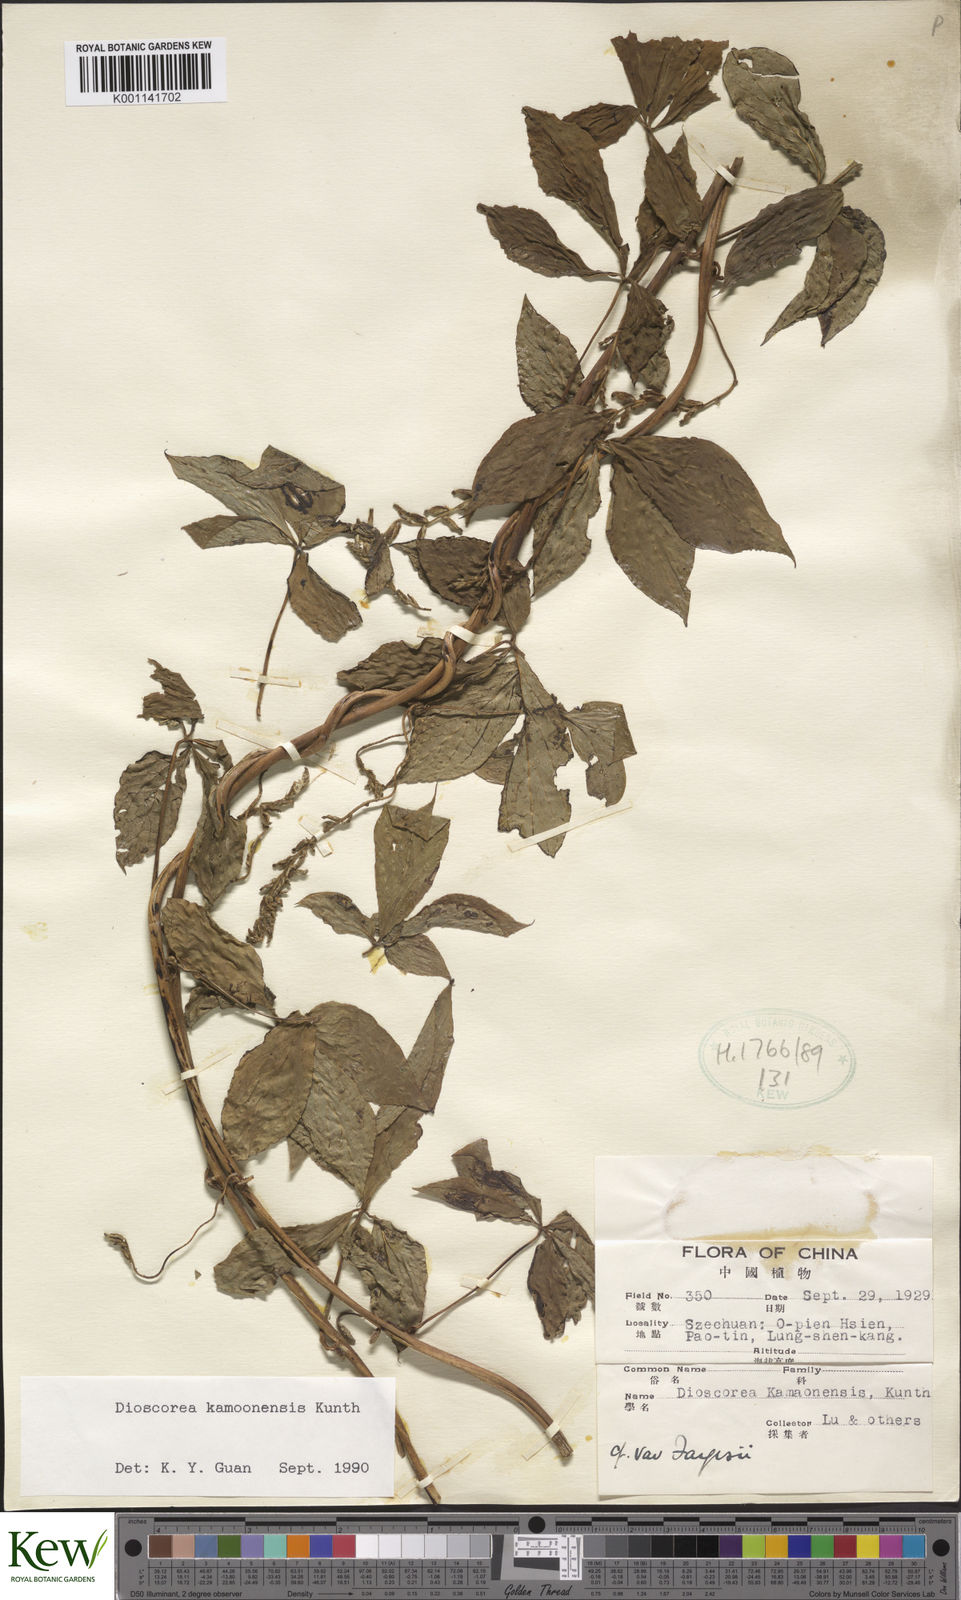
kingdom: Plantae
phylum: Tracheophyta
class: Liliopsida
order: Dioscoreales
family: Dioscoreaceae
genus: Dioscorea
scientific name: Dioscorea kamoonensis
